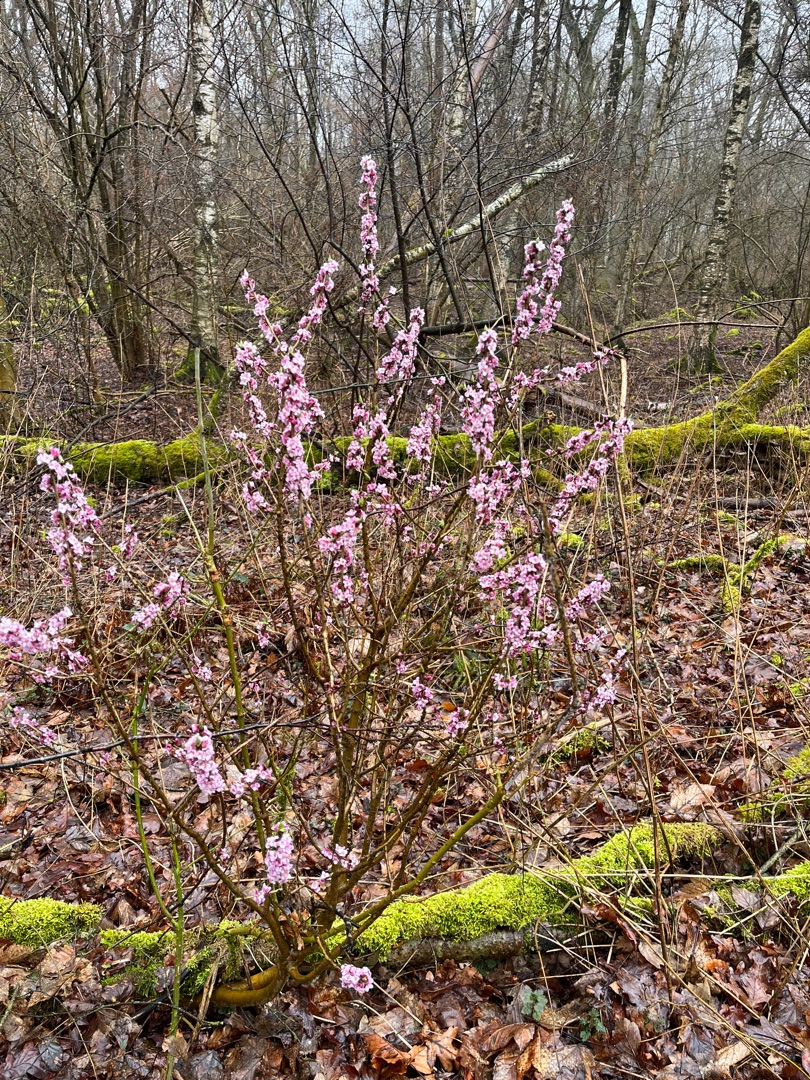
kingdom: Plantae
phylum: Tracheophyta
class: Magnoliopsida
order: Malvales
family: Thymelaeaceae
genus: Daphne
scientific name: Daphne mezereum
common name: Pebertræ
